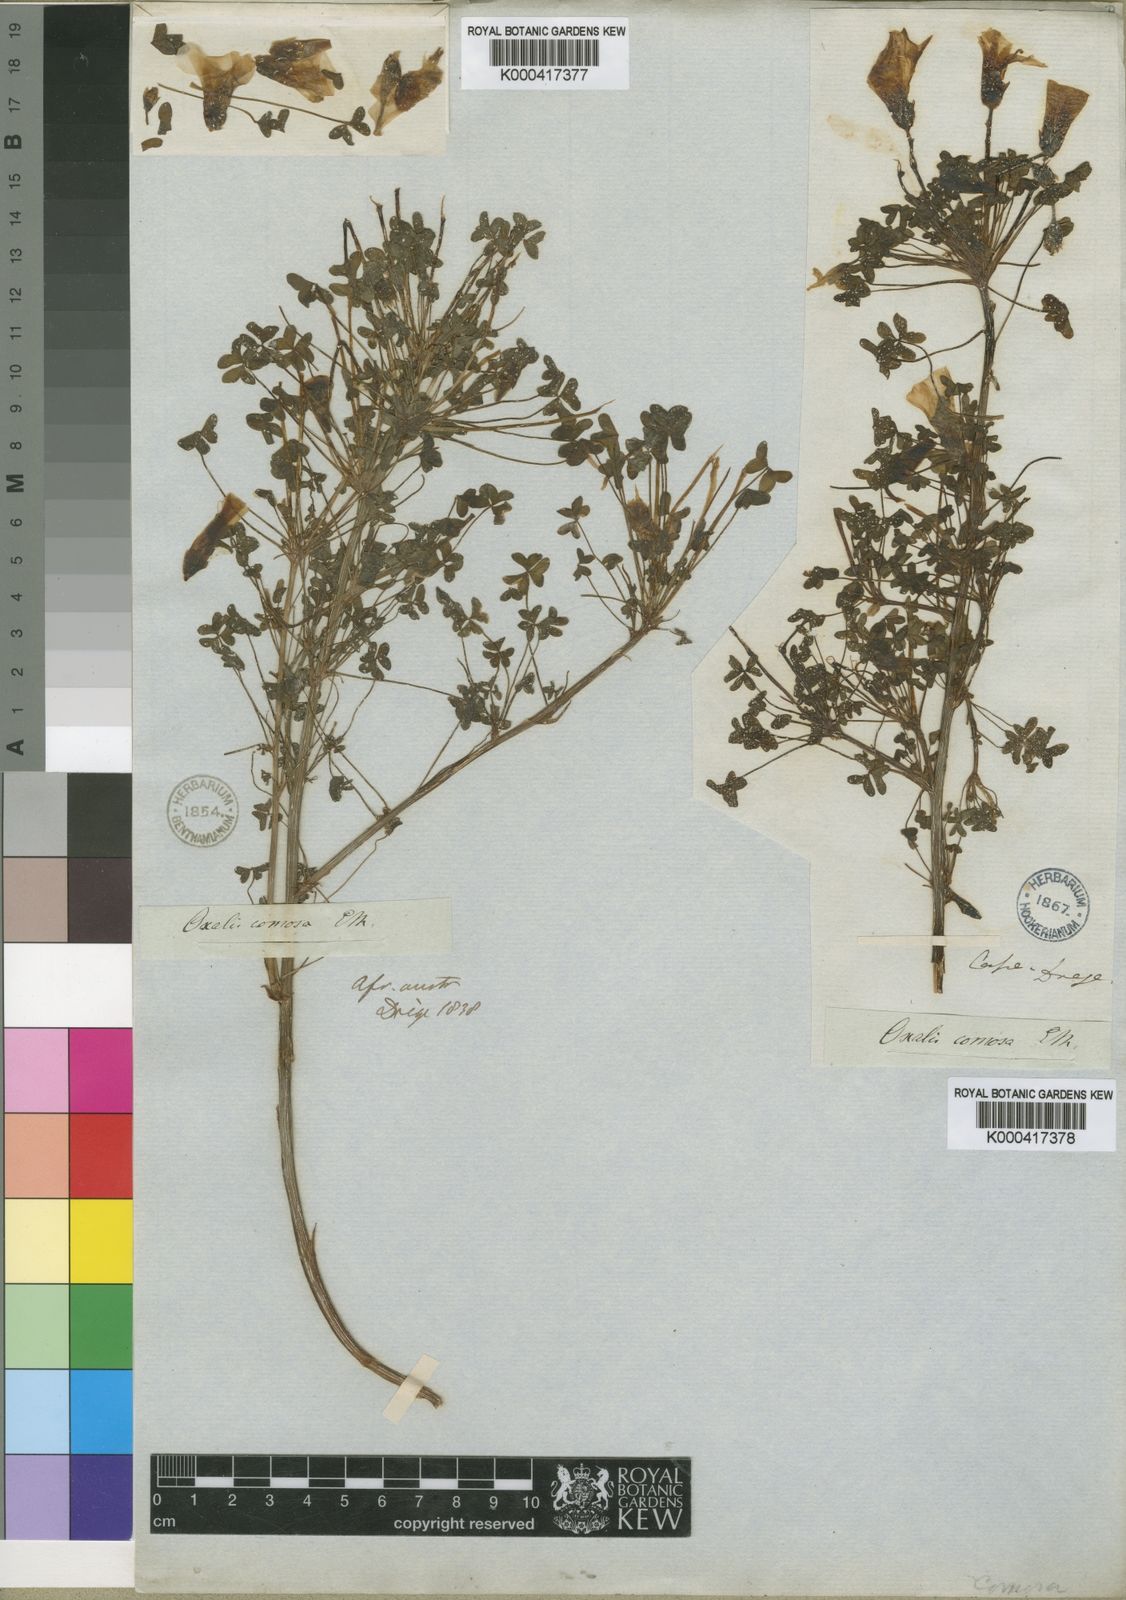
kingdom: Plantae
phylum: Tracheophyta
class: Magnoliopsida
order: Oxalidales
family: Oxalidaceae
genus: Oxalis
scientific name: Oxalis comosa
